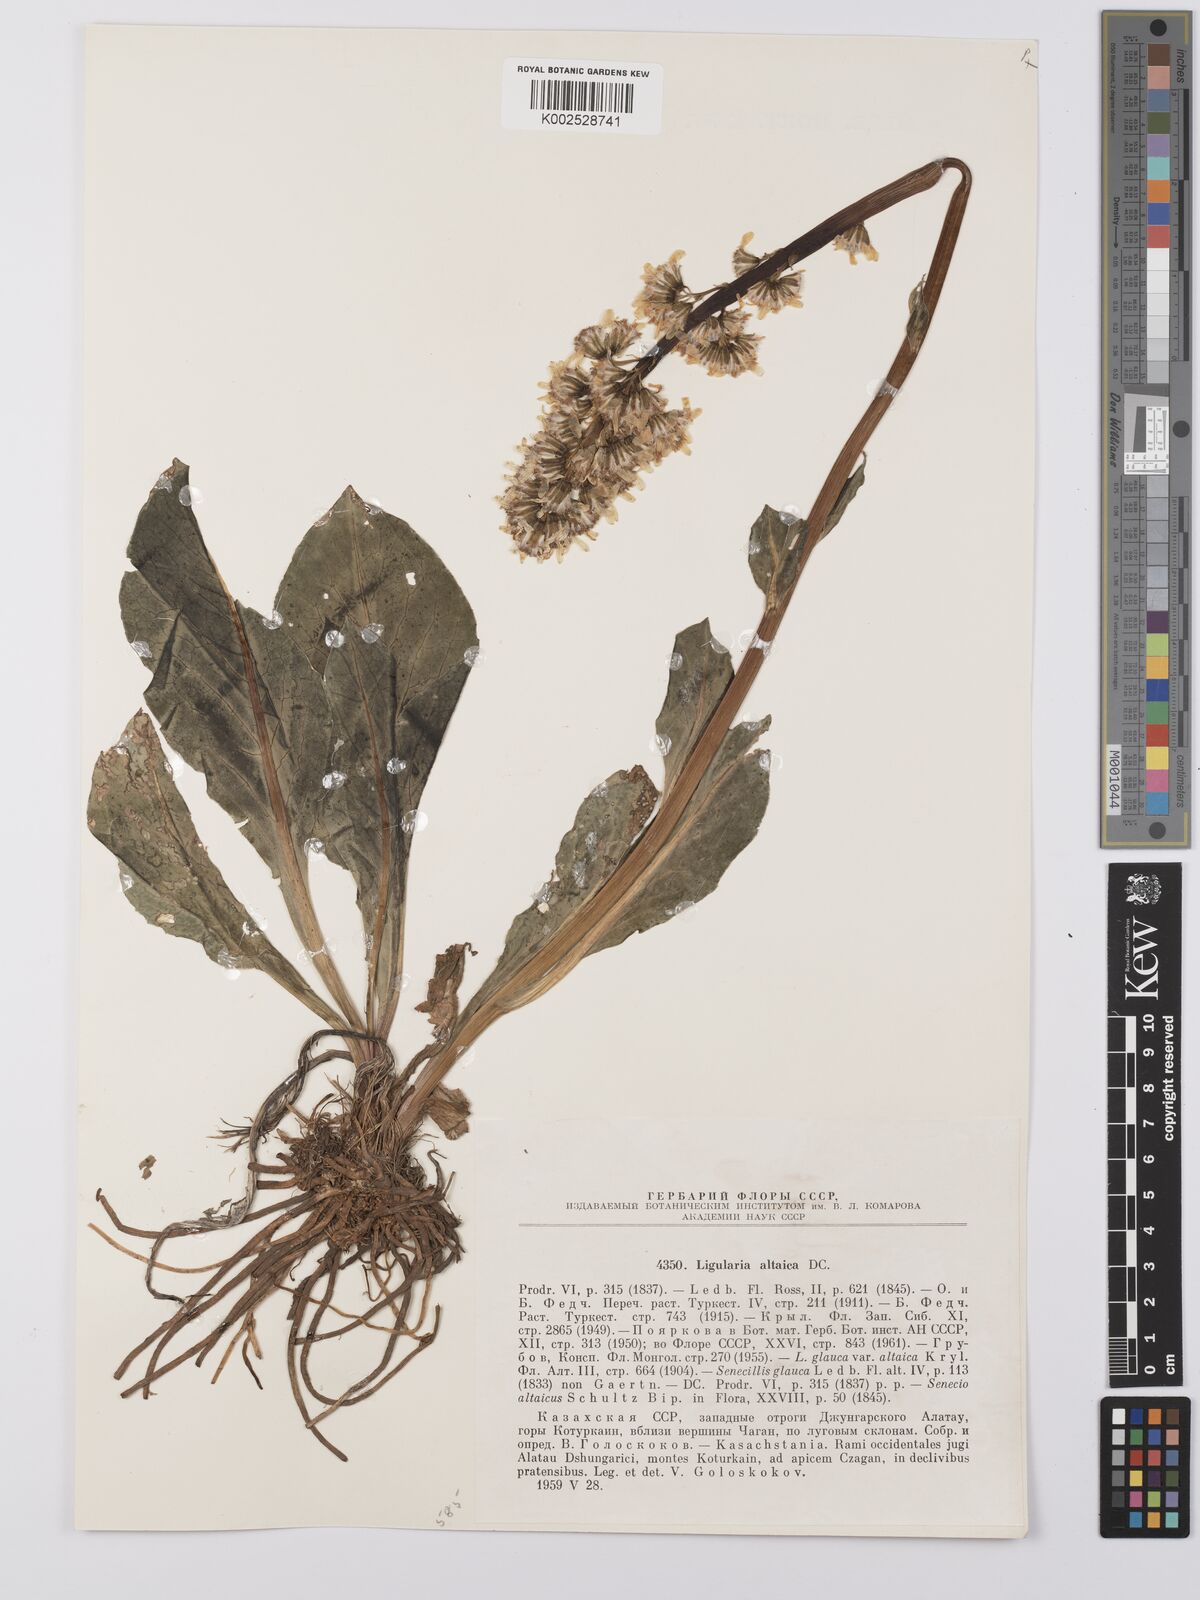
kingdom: Plantae
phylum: Tracheophyta
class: Magnoliopsida
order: Asterales
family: Asteraceae
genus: Ligularia
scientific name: Ligularia altaica
